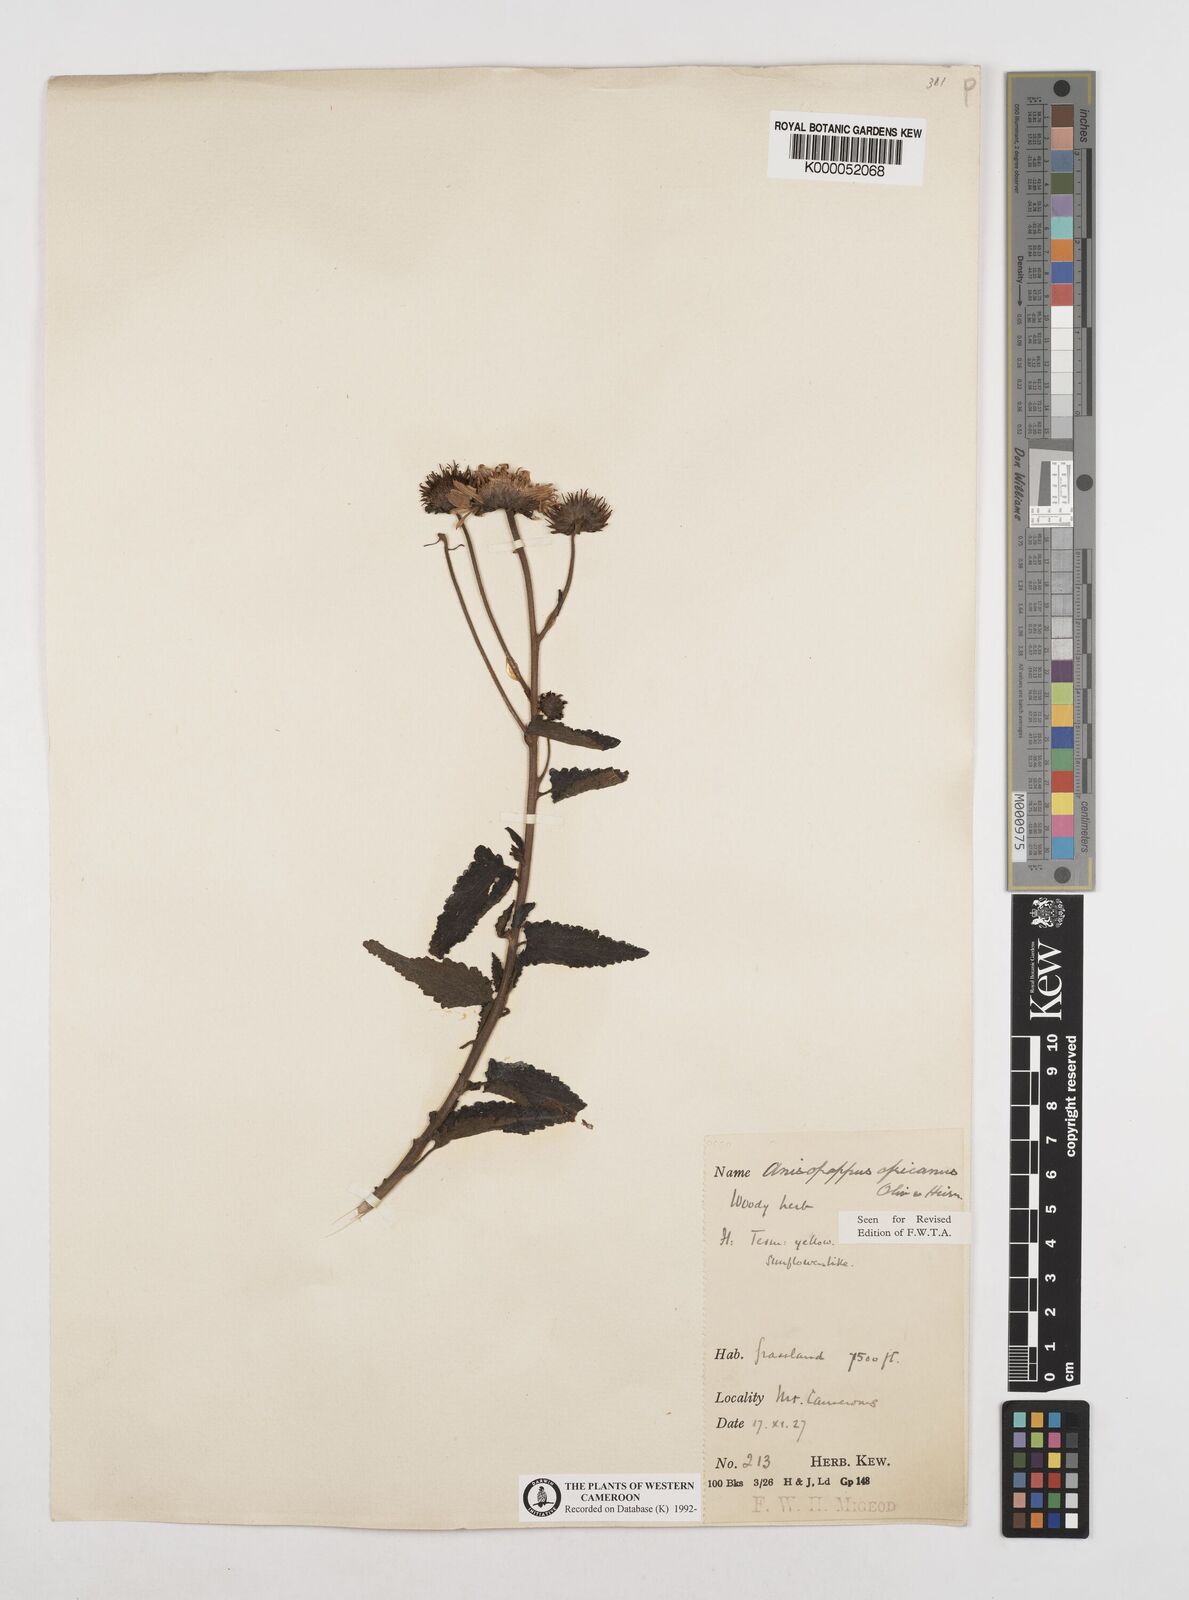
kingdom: Plantae
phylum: Tracheophyta
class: Magnoliopsida
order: Asterales
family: Asteraceae
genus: Anisopappus
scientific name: Anisopappus africanus
